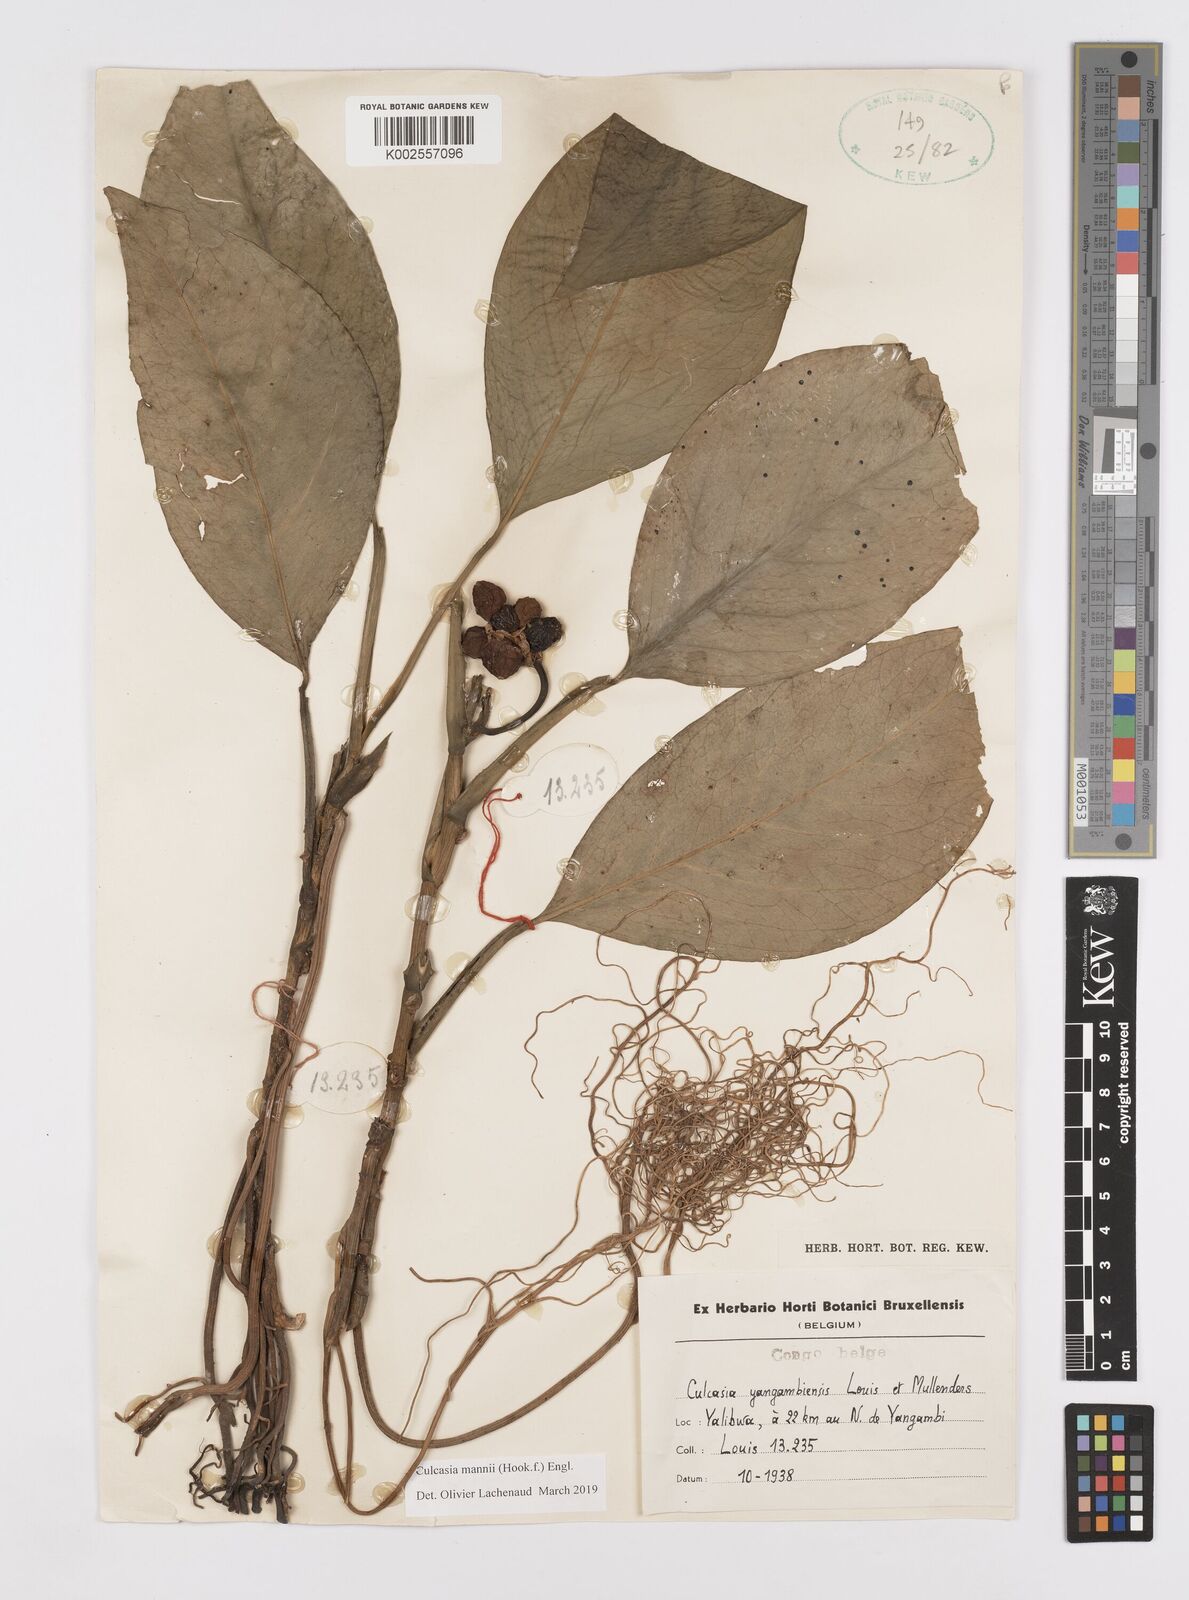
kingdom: Plantae
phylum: Tracheophyta
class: Liliopsida
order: Alismatales
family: Araceae
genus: Culcasia
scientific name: Culcasia mannii
